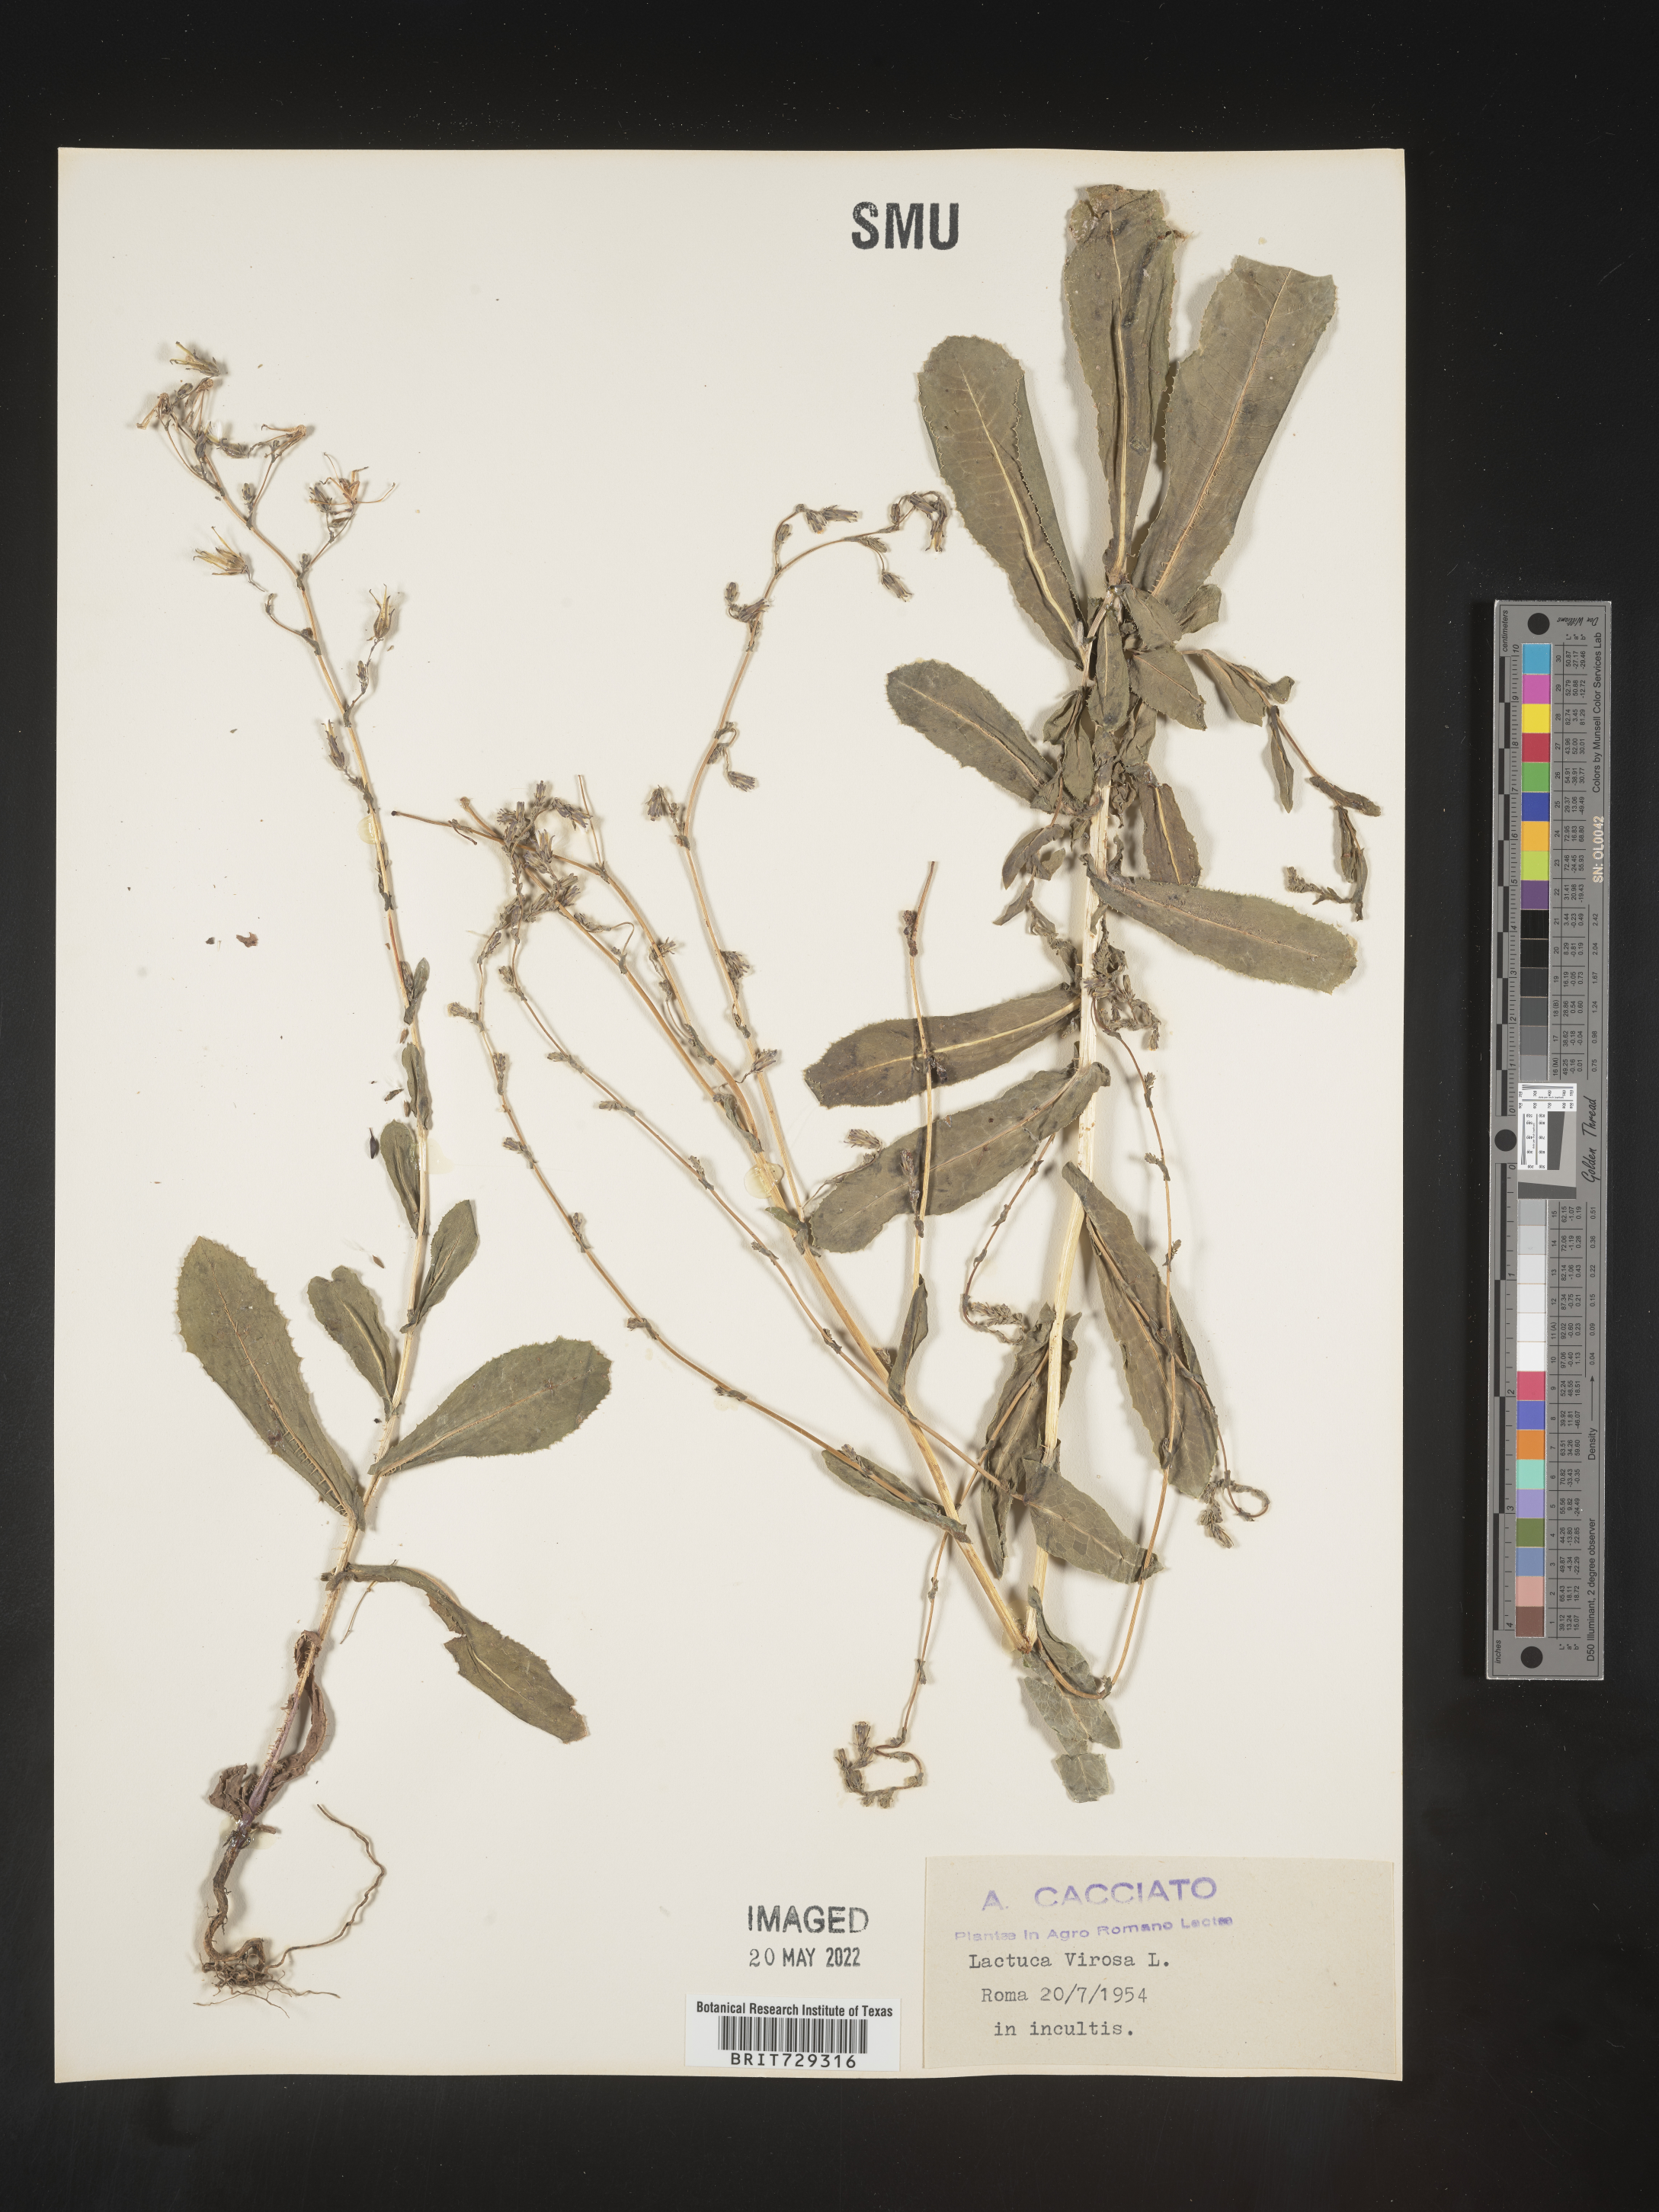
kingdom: Plantae
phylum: Tracheophyta
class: Magnoliopsida
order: Asterales
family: Asteraceae
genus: Lactuca
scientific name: Lactuca
